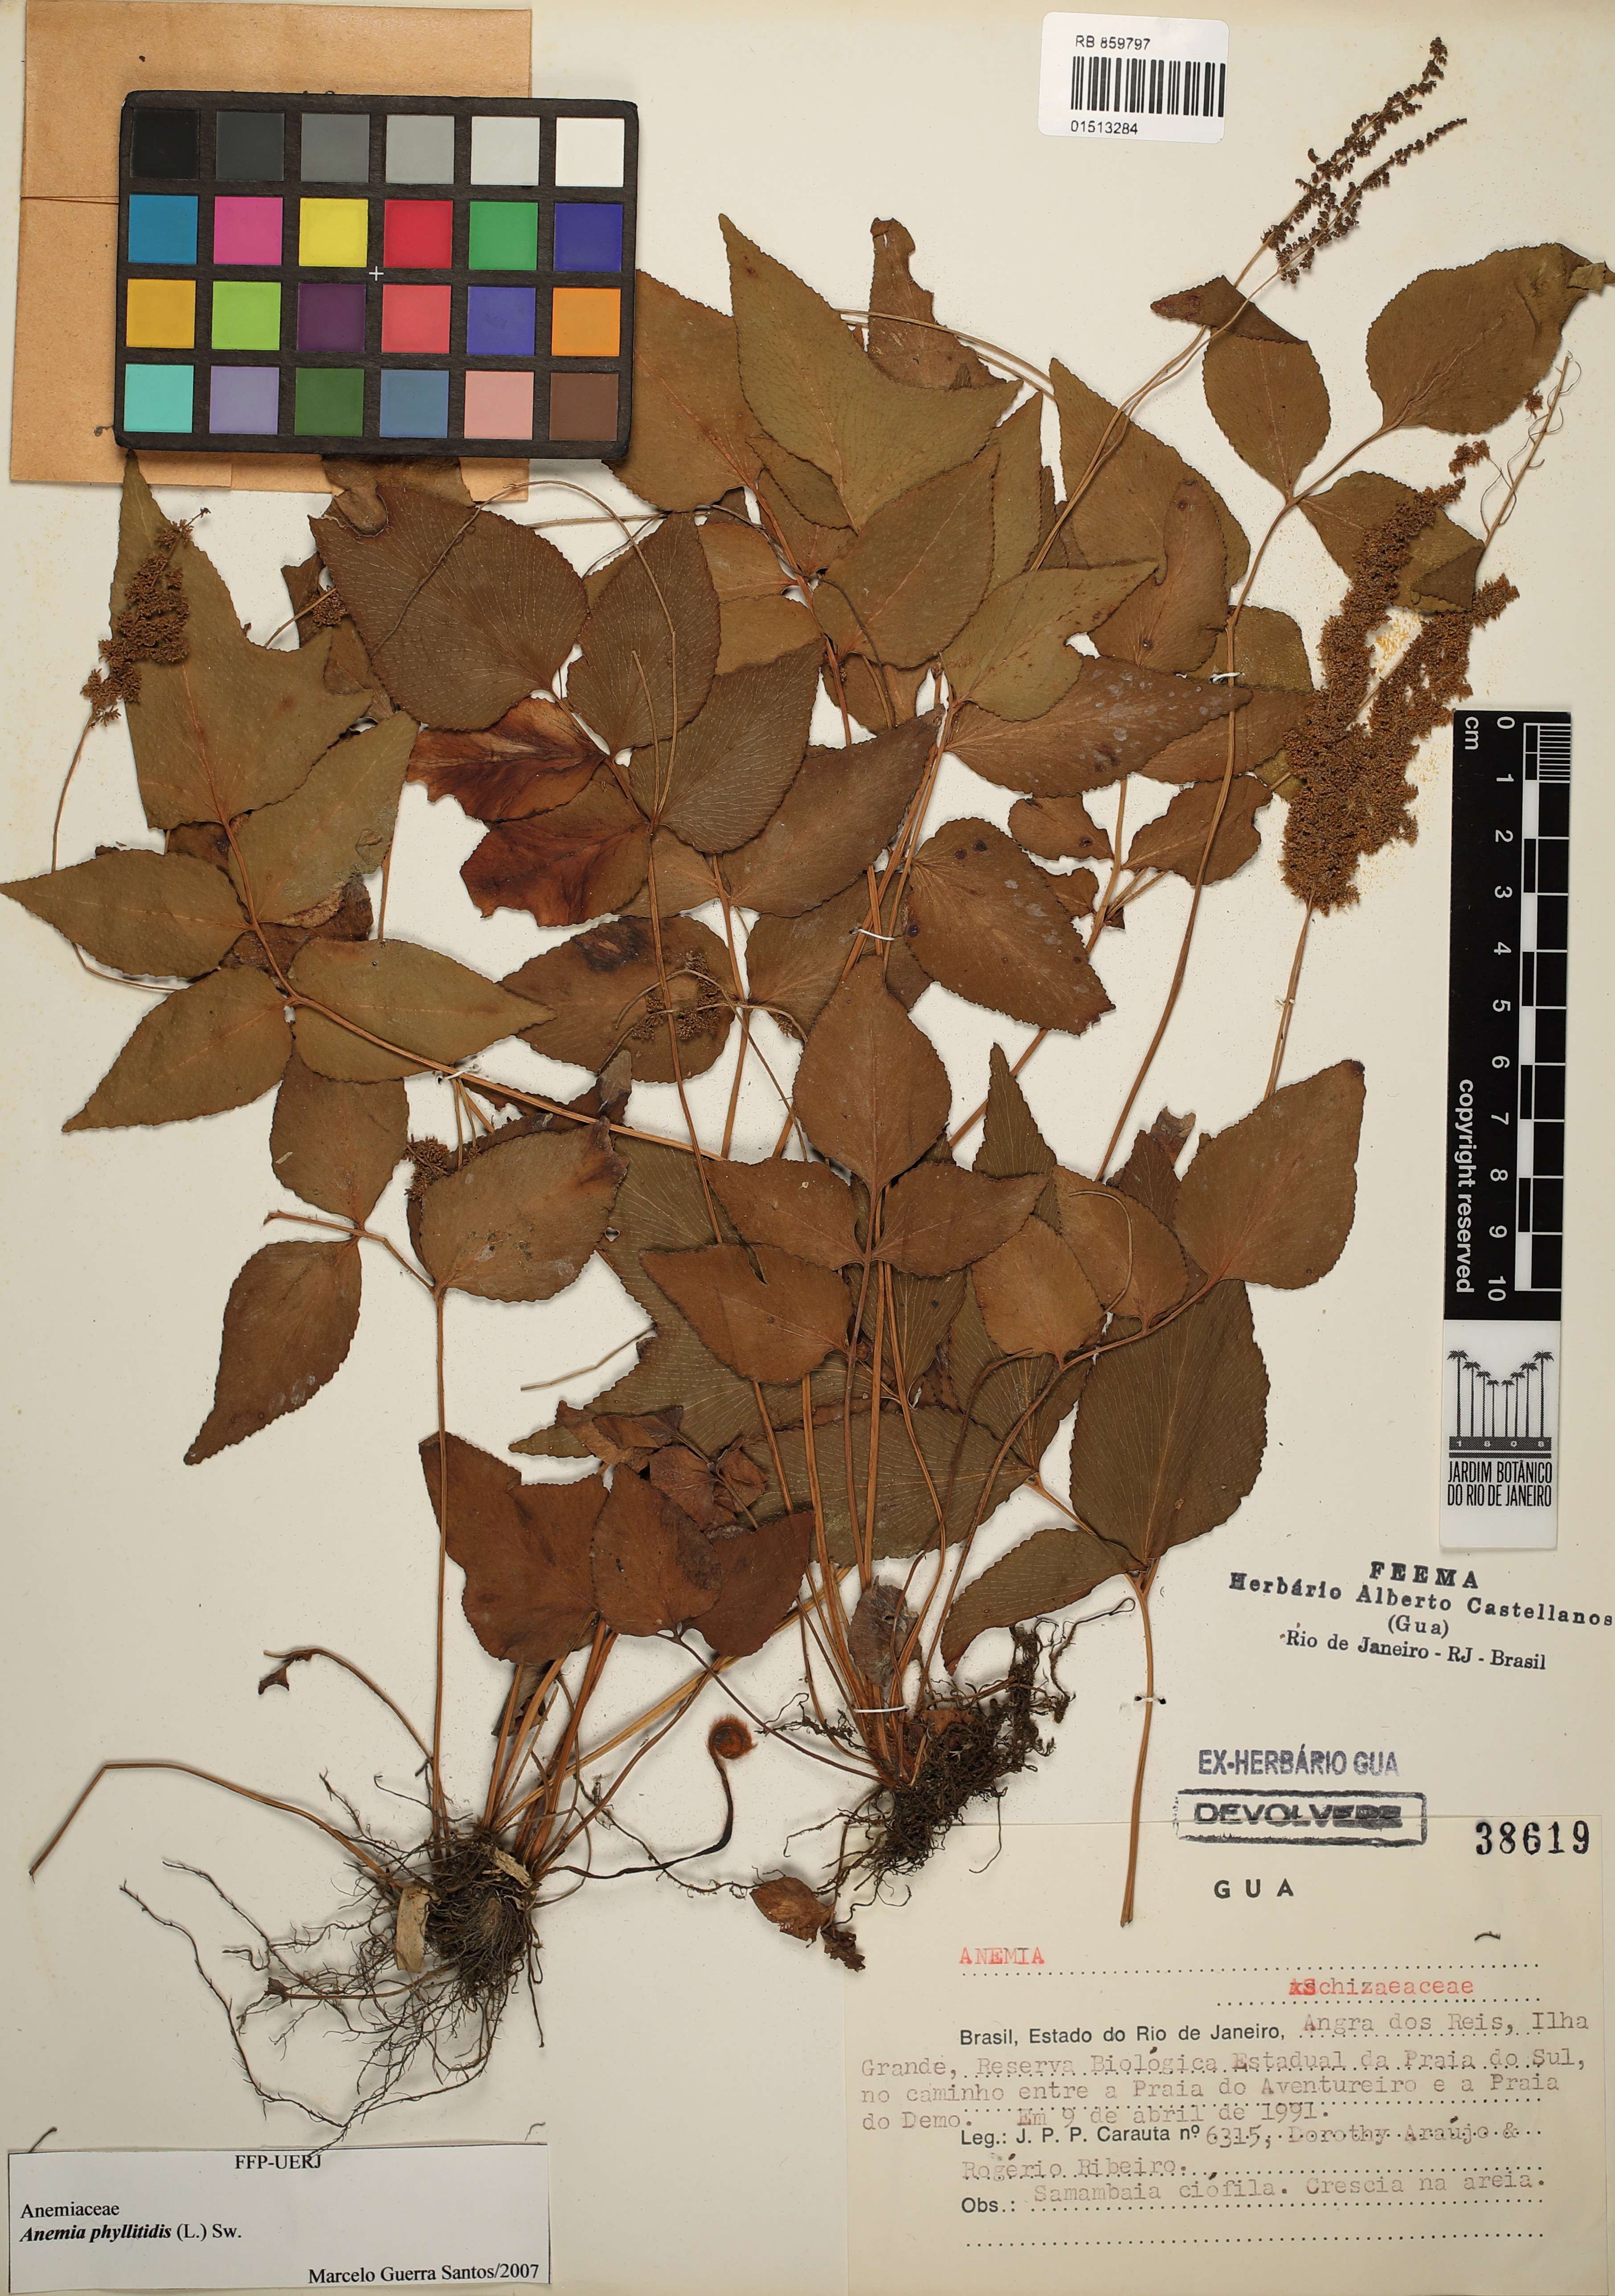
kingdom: Plantae
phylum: Tracheophyta
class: Polypodiopsida
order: Schizaeales
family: Anemiaceae
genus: Anemia
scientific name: Anemia phyllitidis
